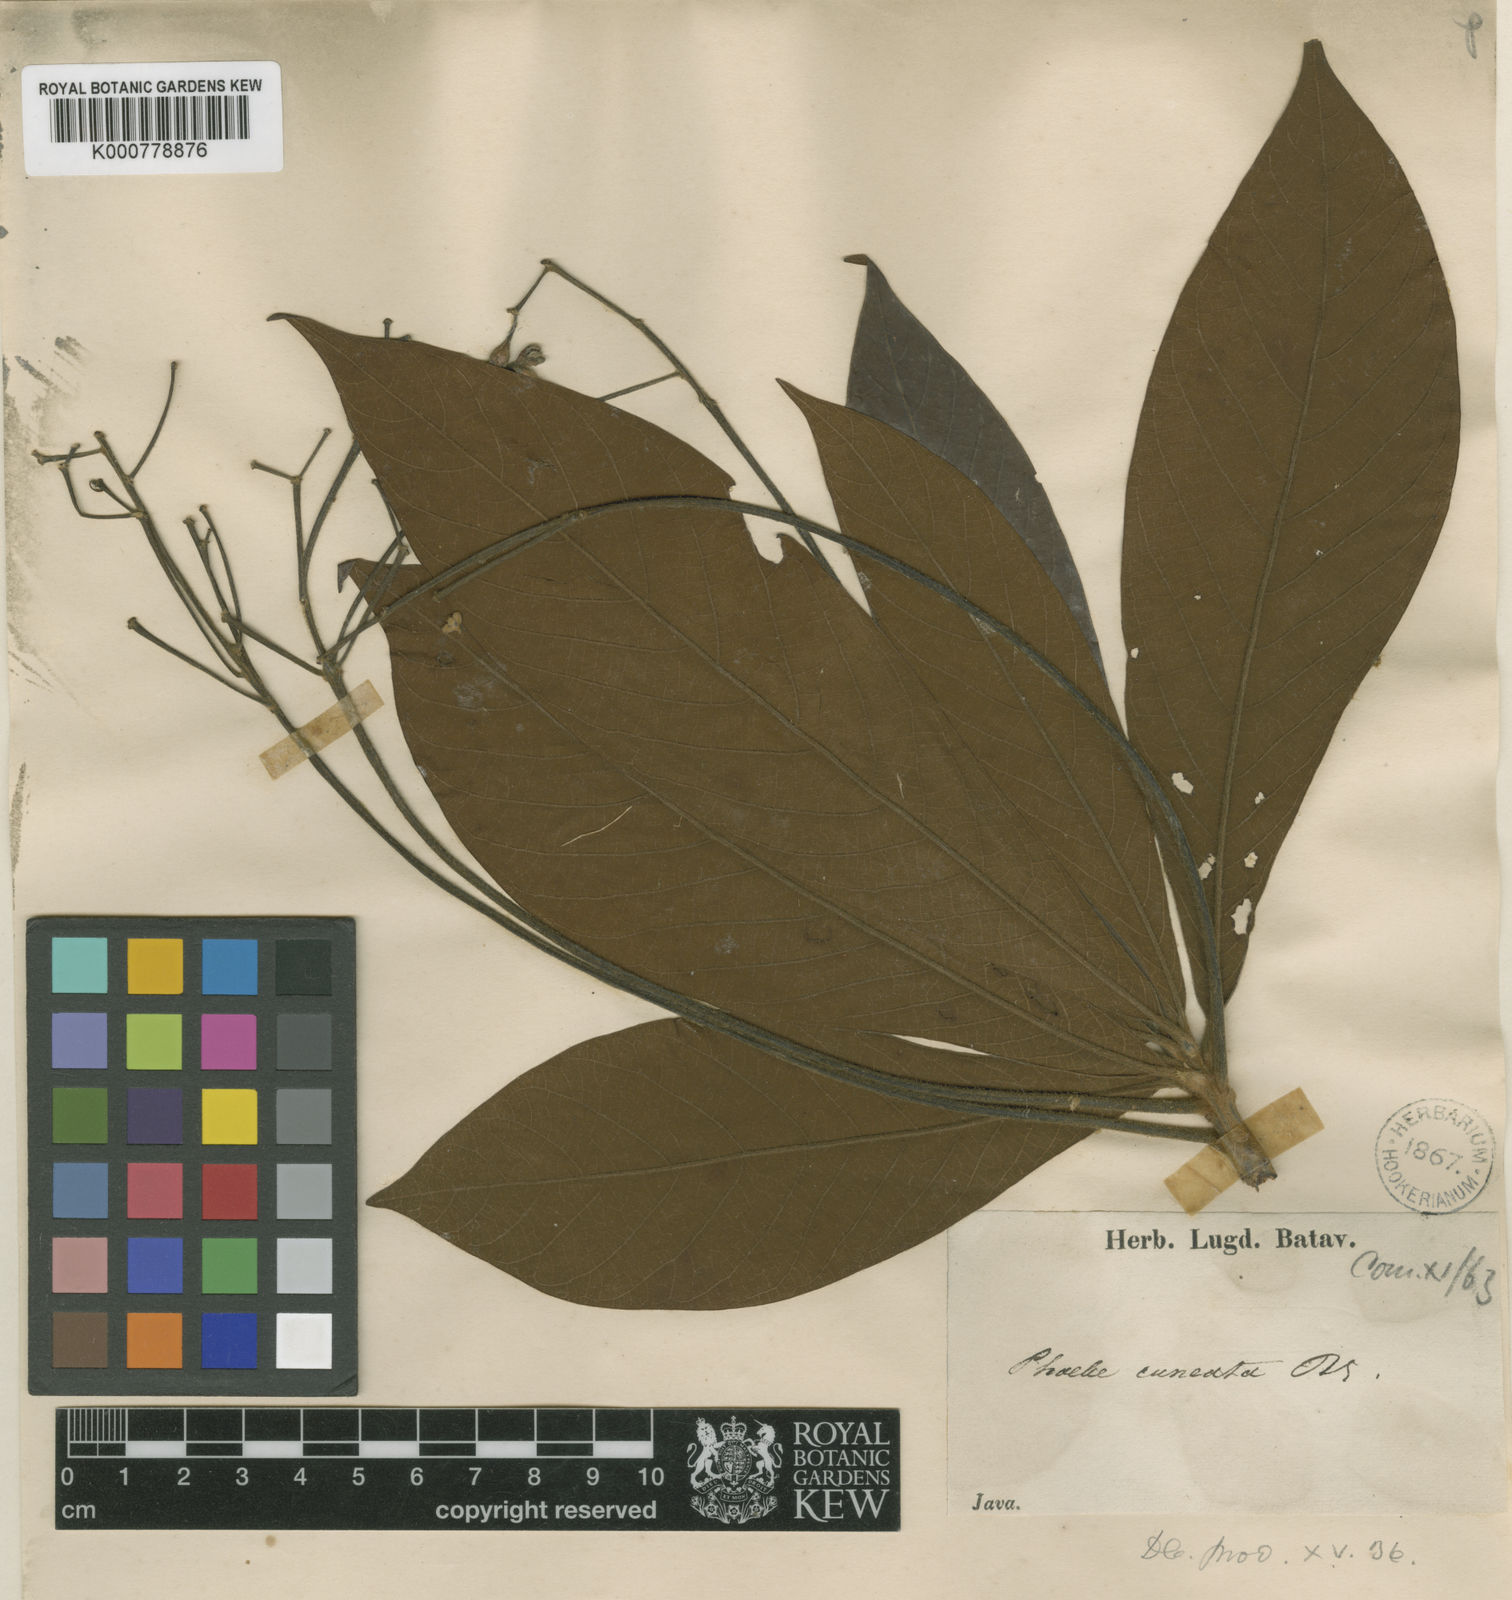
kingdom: Plantae
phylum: Tracheophyta
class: Magnoliopsida
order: Laurales
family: Lauraceae
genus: Phoebe
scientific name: Phoebe
